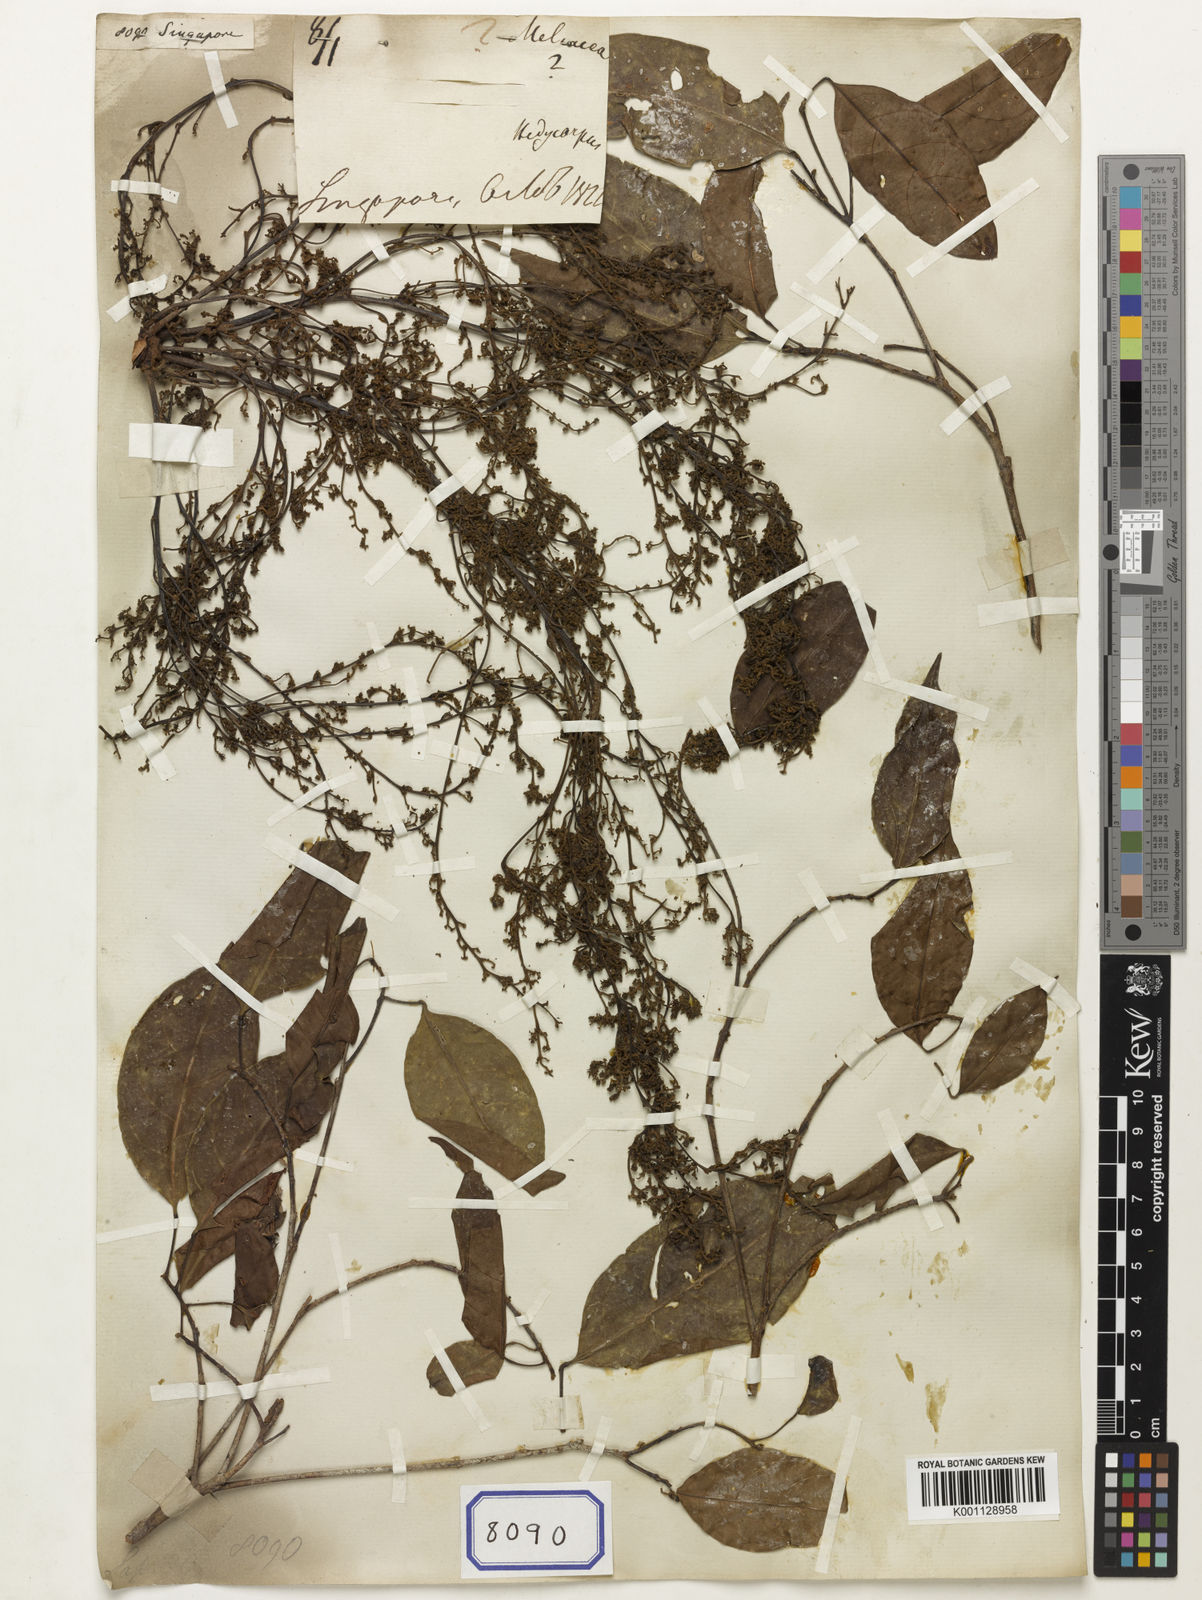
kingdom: Plantae
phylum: Tracheophyta
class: Magnoliopsida
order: Sapindales
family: Sapindaceae
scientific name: Sapindaceae
